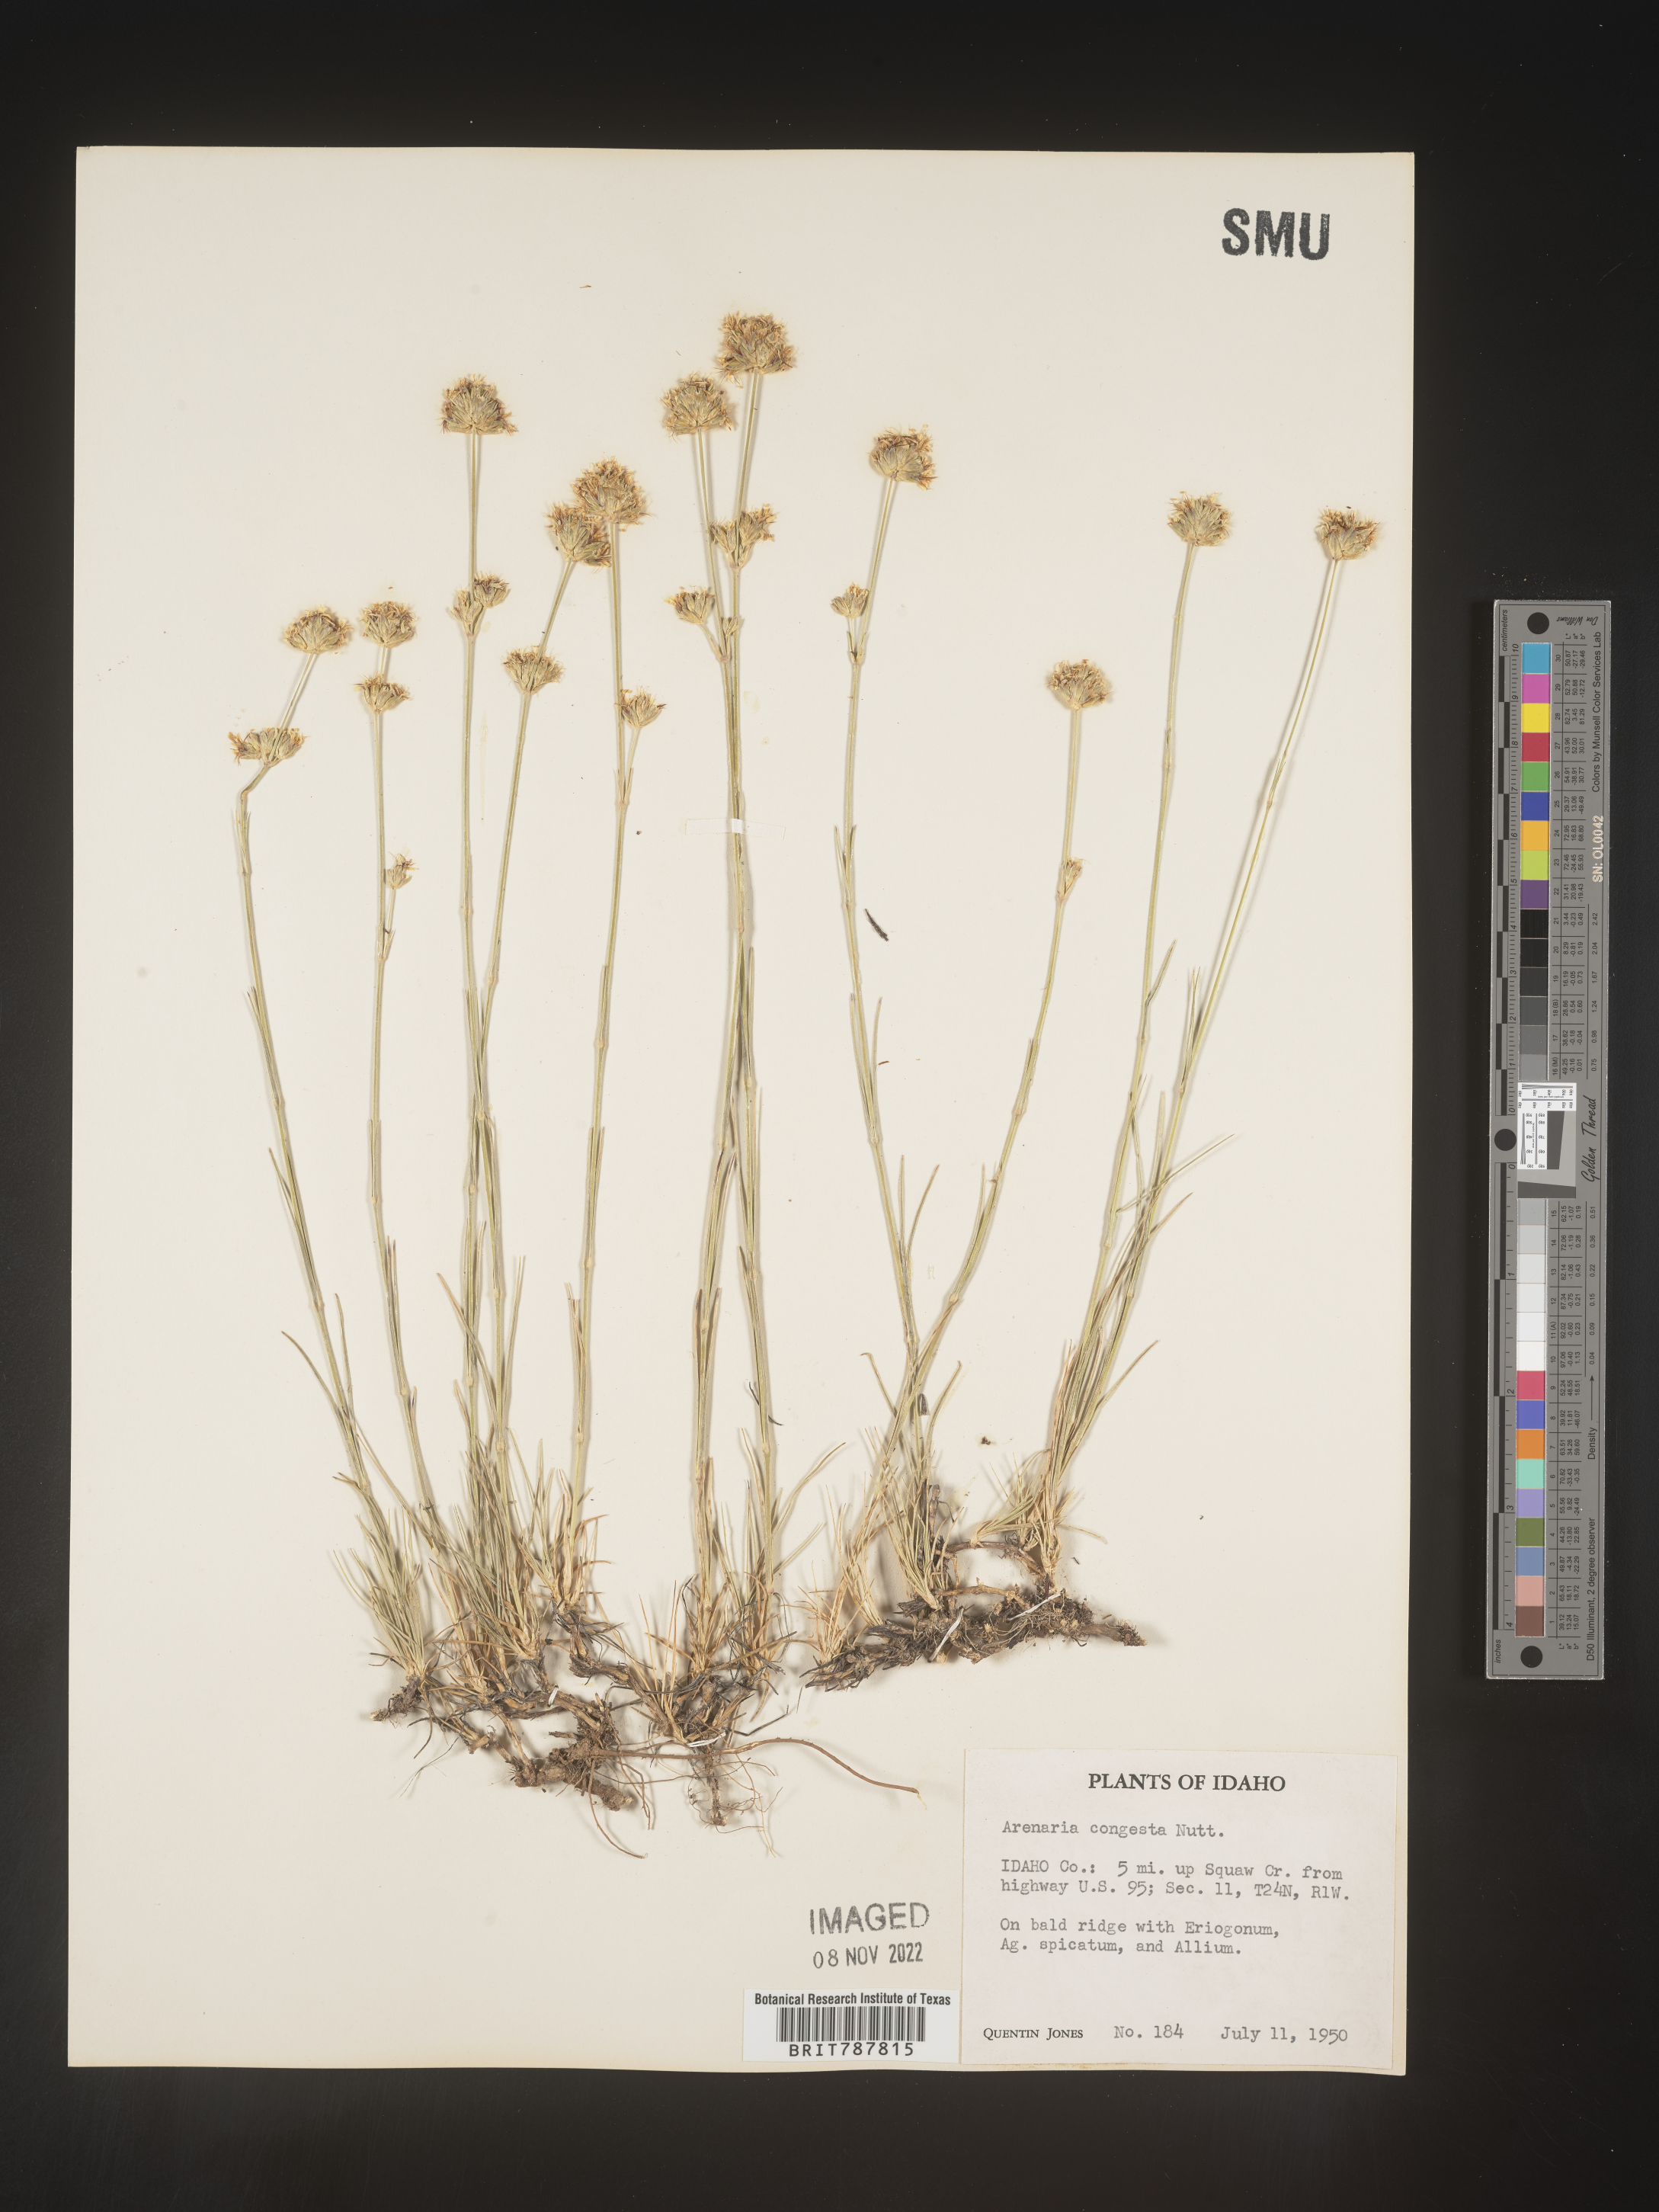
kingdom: Plantae
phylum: Tracheophyta
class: Magnoliopsida
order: Caryophyllales
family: Caryophyllaceae
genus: Eremogone
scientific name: Eremogone congesta
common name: Ballhead sandwort
